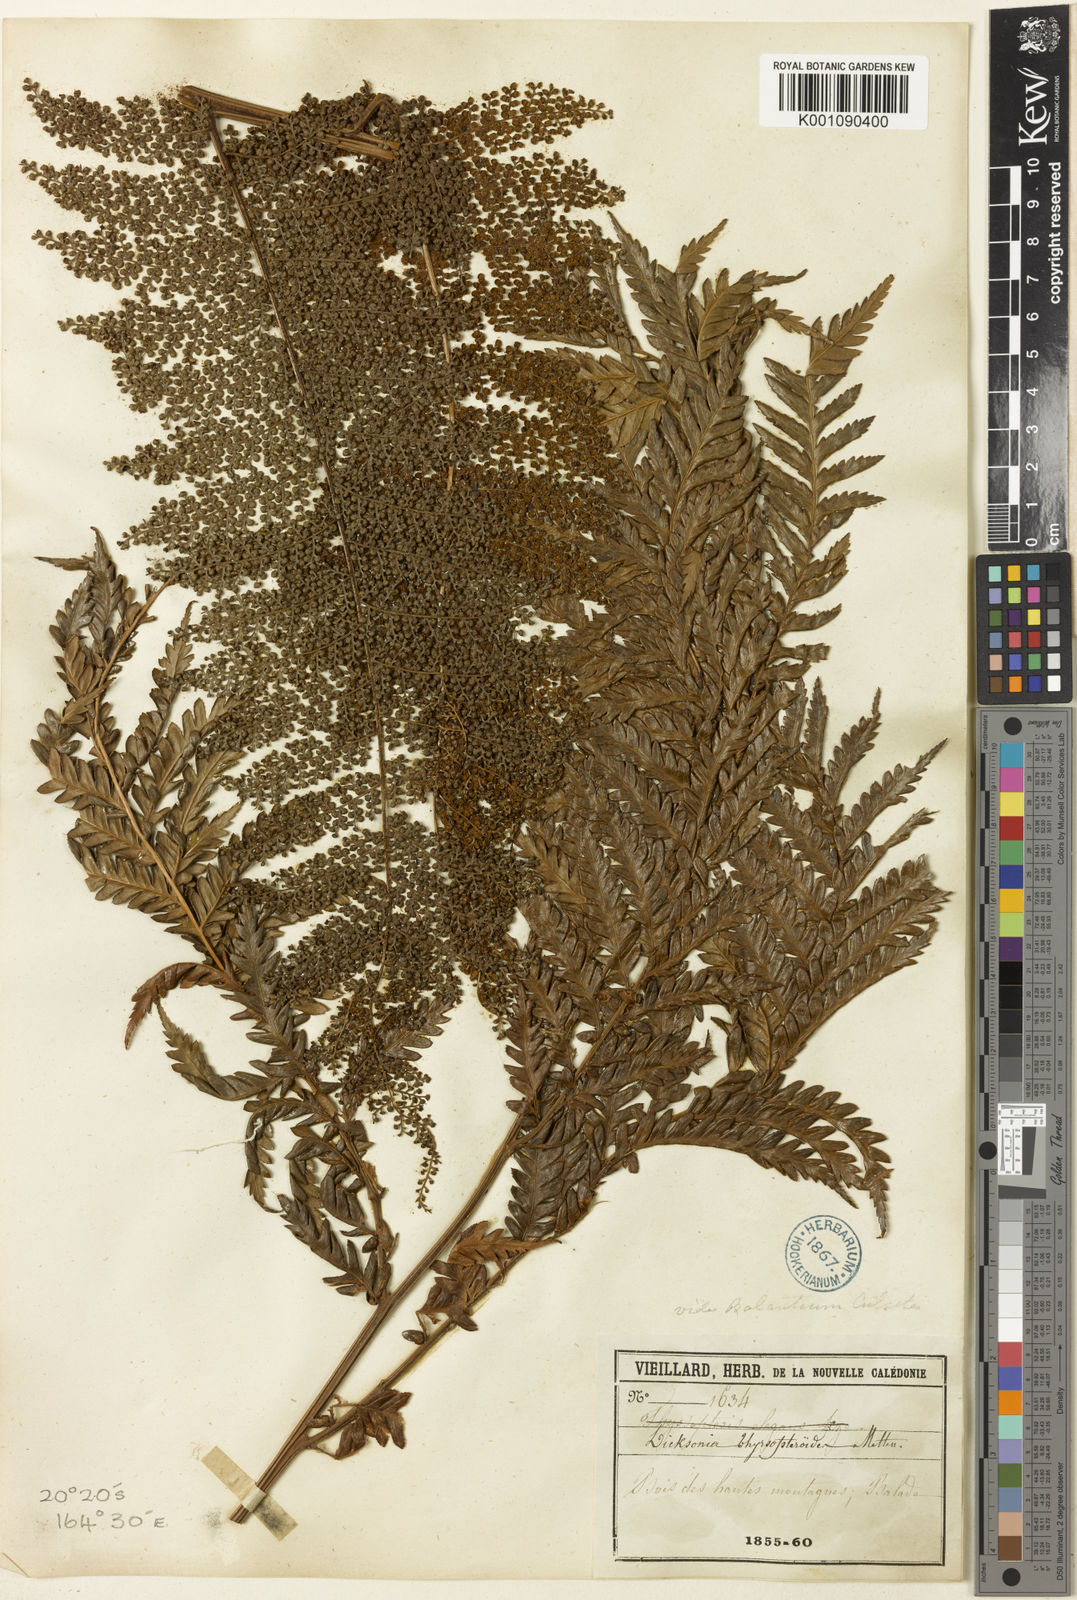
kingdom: Plantae
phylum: Tracheophyta
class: Polypodiopsida
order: Cyatheales
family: Dicksoniaceae
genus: Dicksonia
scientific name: Dicksonia thyrsopteroides
